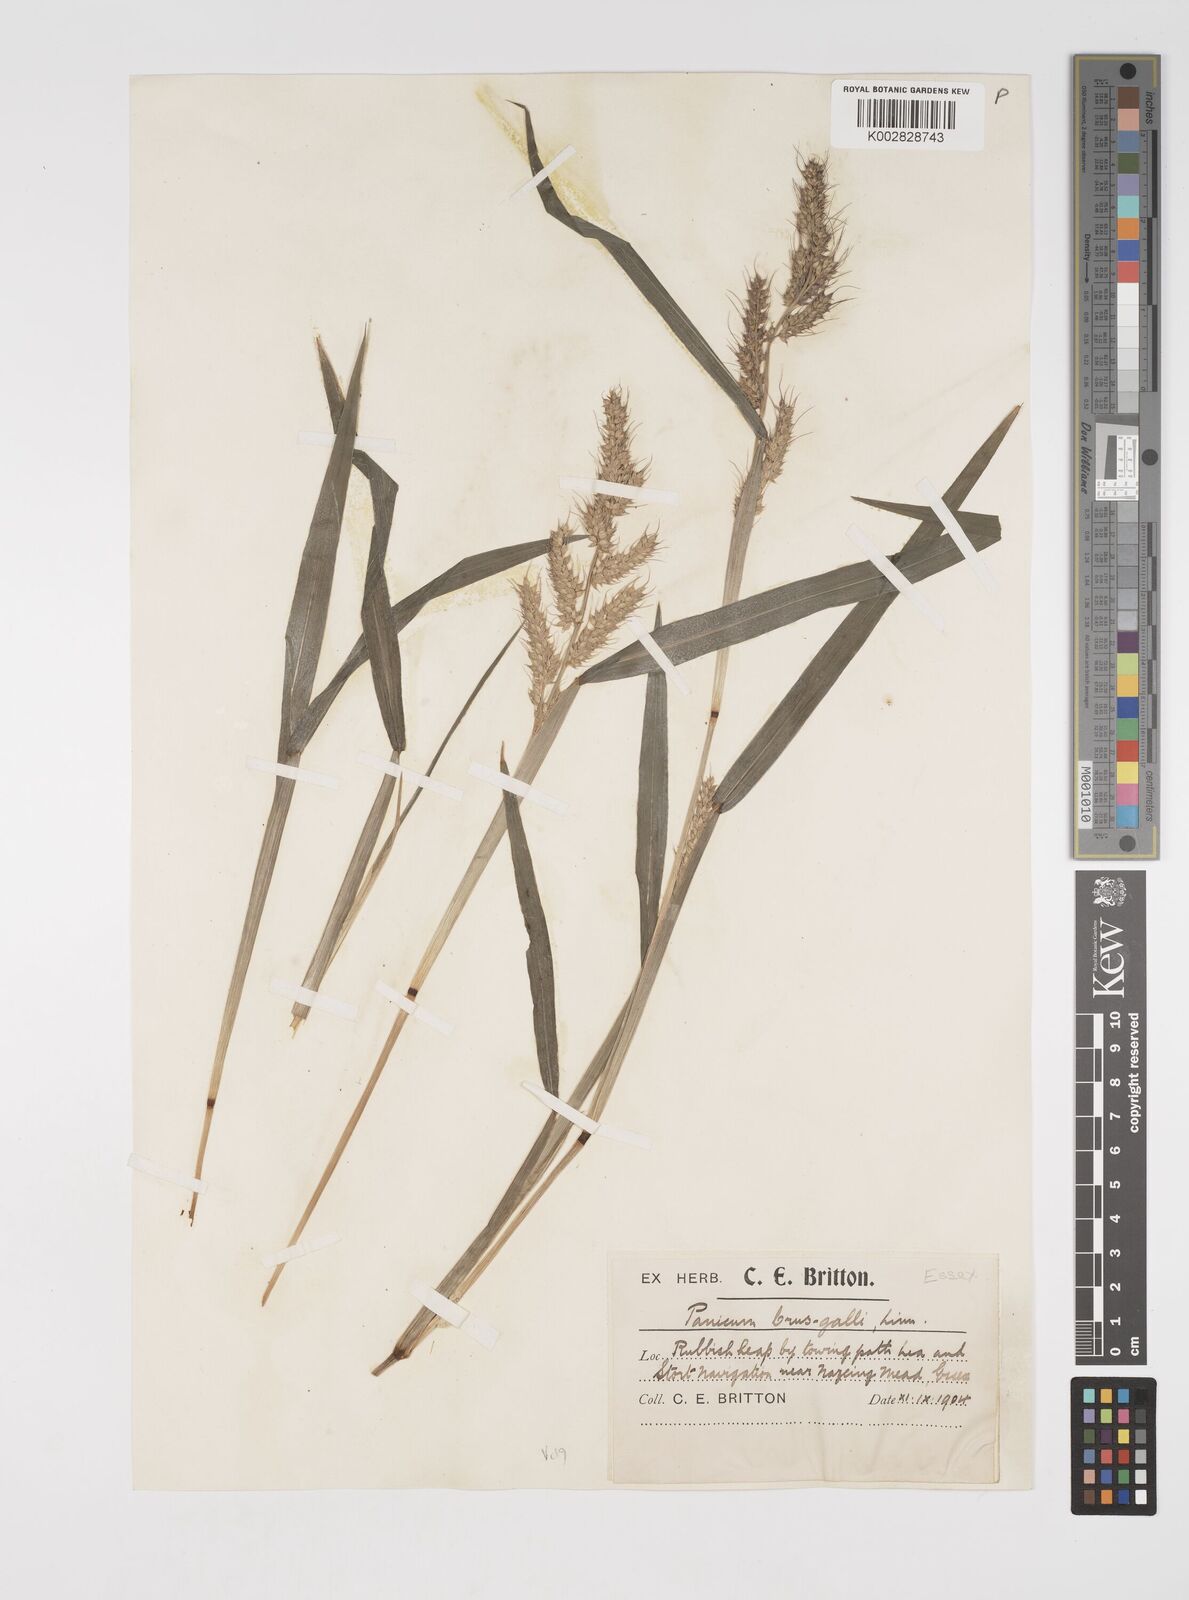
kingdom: Plantae
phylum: Tracheophyta
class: Liliopsida
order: Poales
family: Poaceae
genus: Echinochloa
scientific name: Echinochloa crus-galli
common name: Cockspur
